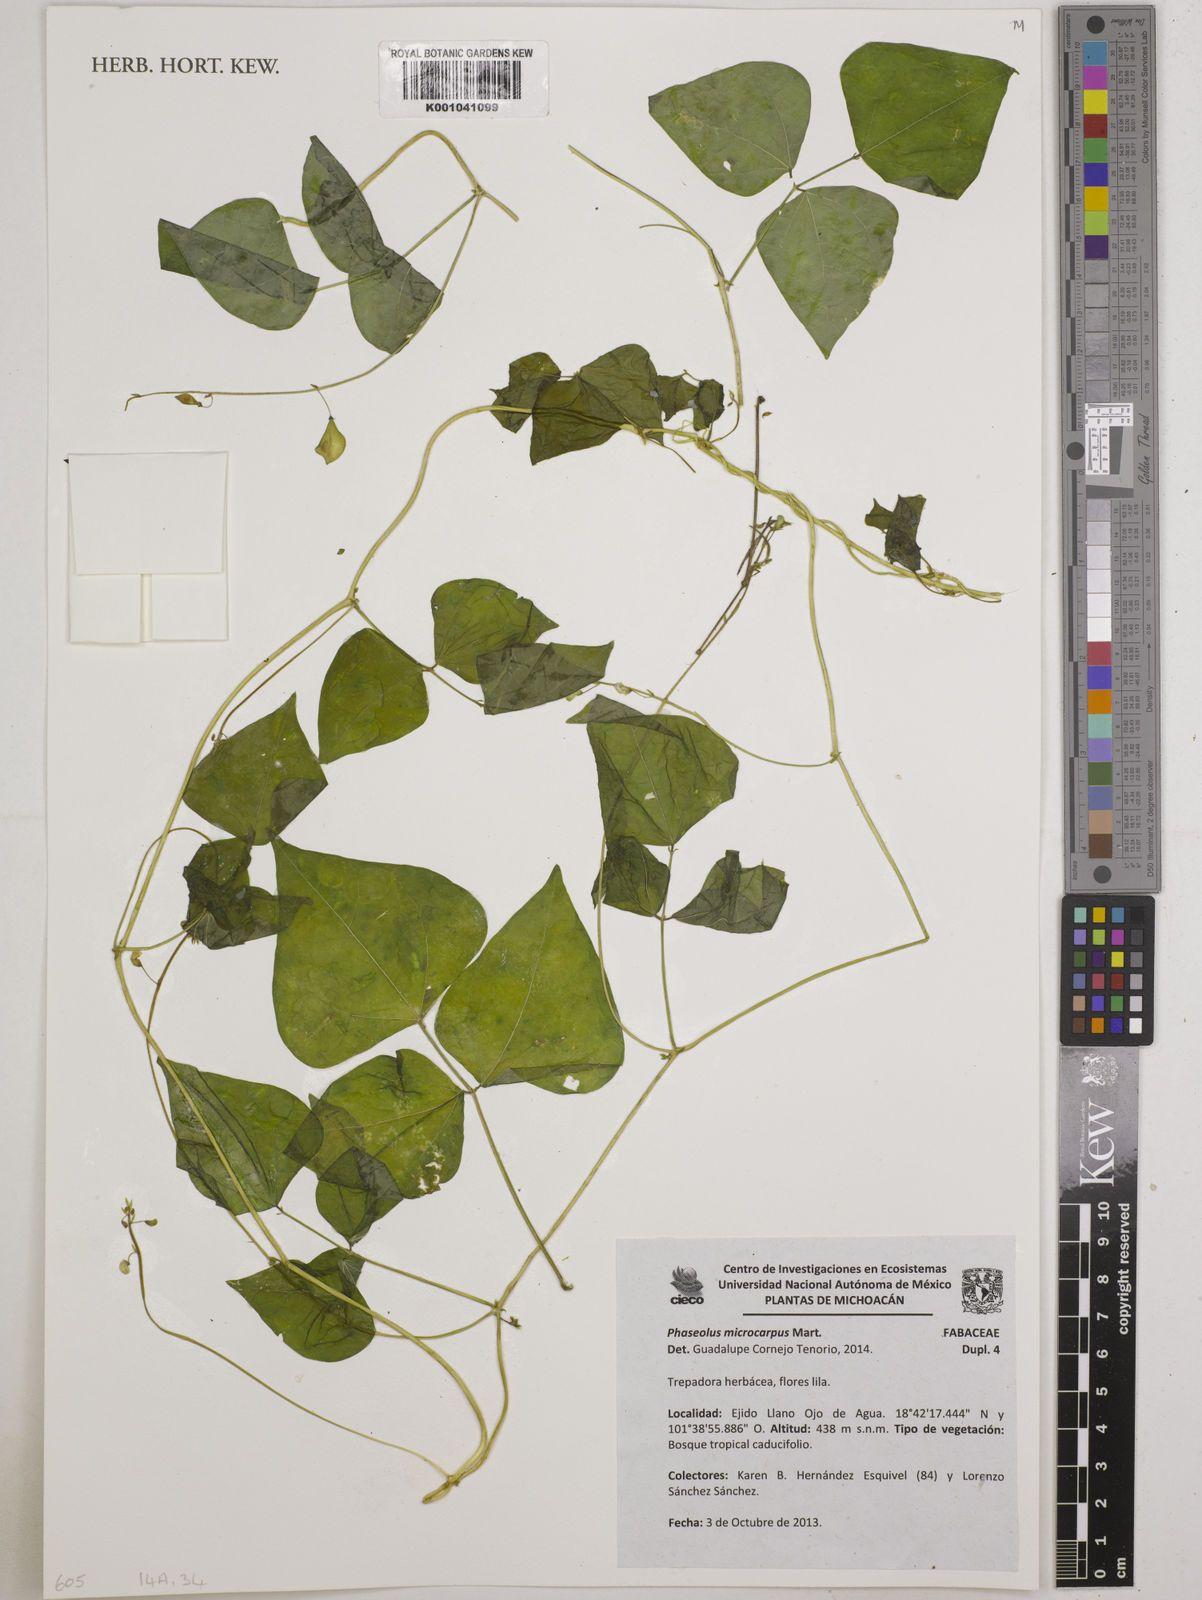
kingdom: Plantae
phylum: Tracheophyta
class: Magnoliopsida
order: Fabales
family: Fabaceae
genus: Phaseolus
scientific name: Phaseolus lunatus
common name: Sieva bean
